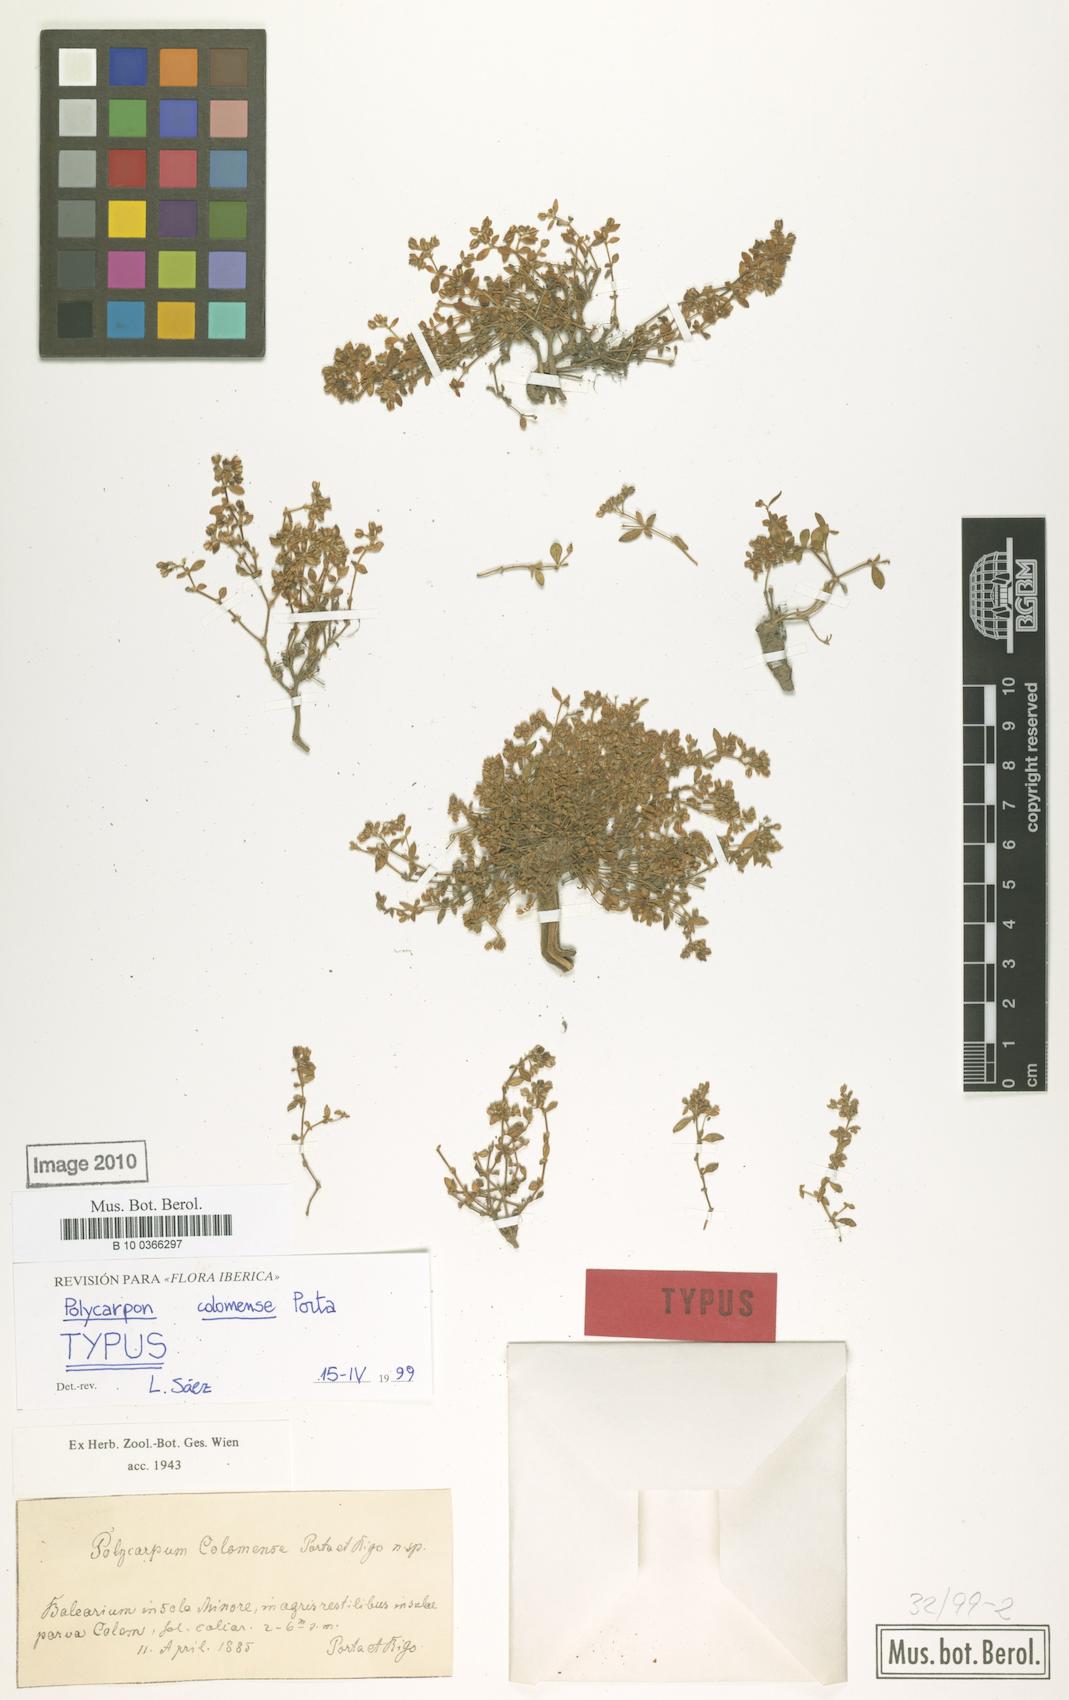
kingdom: Plantae
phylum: Tracheophyta
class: Magnoliopsida
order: Caryophyllales
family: Caryophyllaceae
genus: Polycarpon
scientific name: Polycarpon polycarpoides
